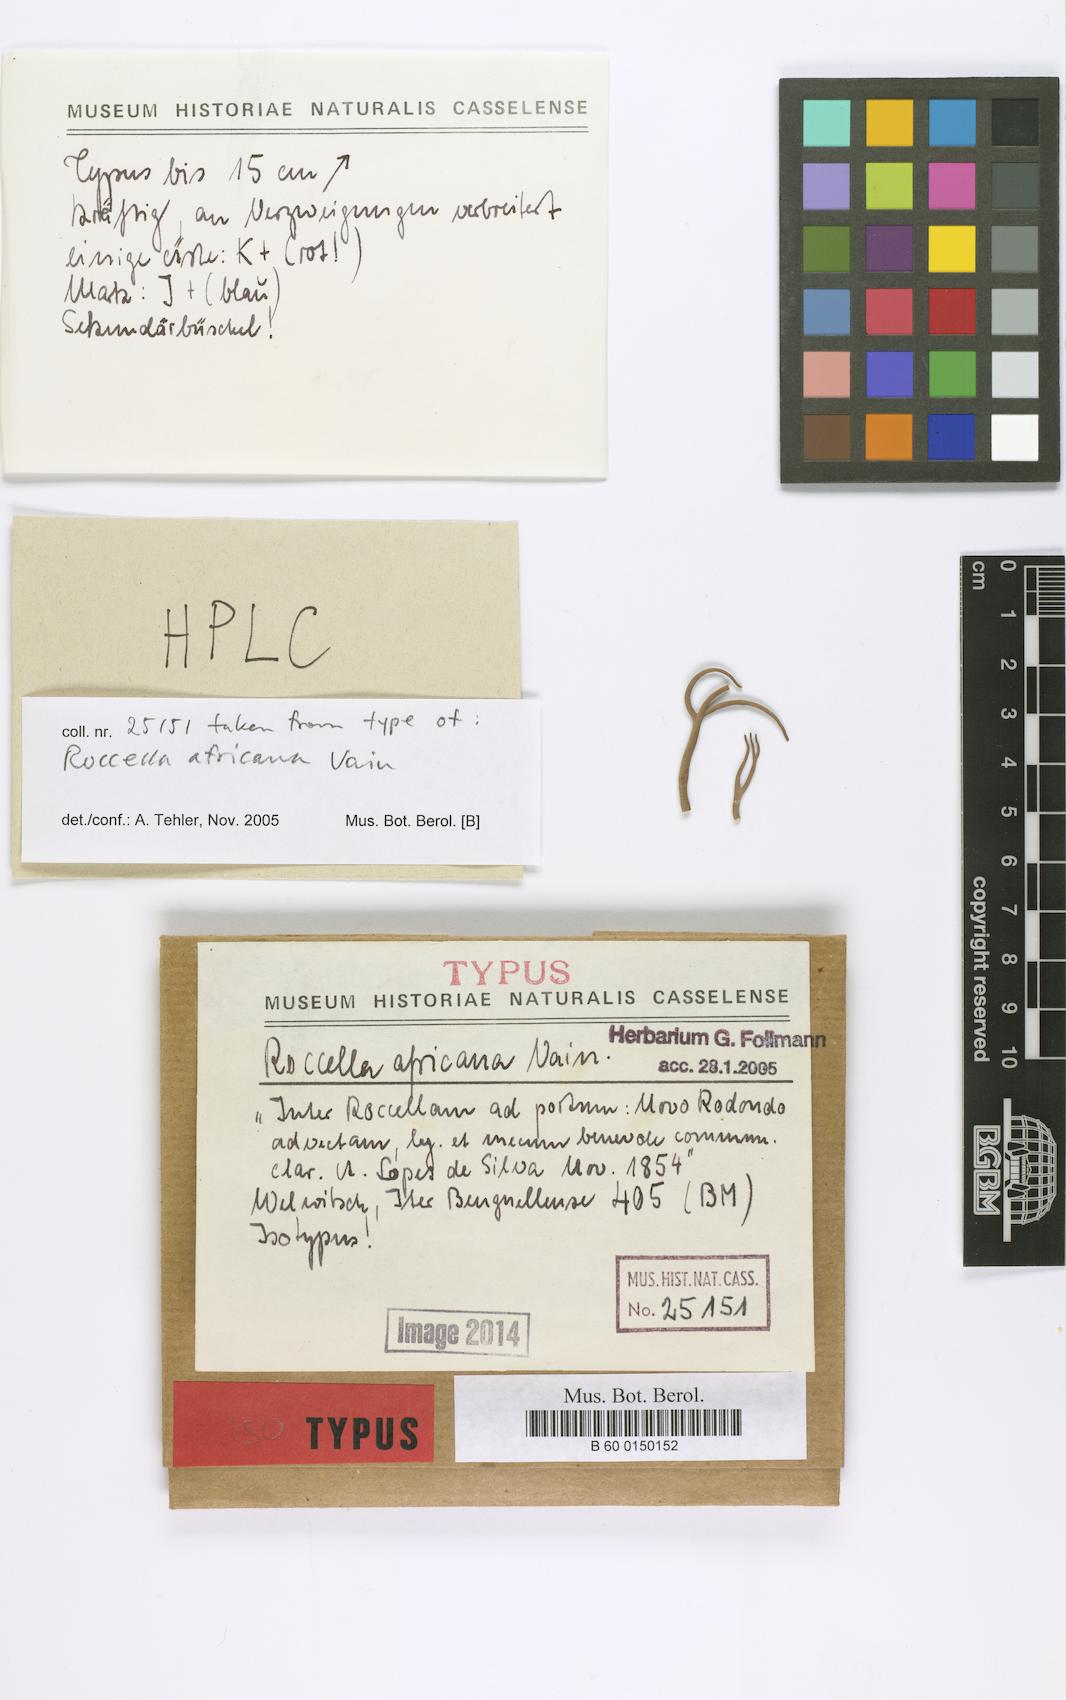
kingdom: Fungi
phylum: Ascomycota
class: Arthoniomycetes
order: Arthoniales
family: Roccellaceae
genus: Roccella
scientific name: Roccella africana
